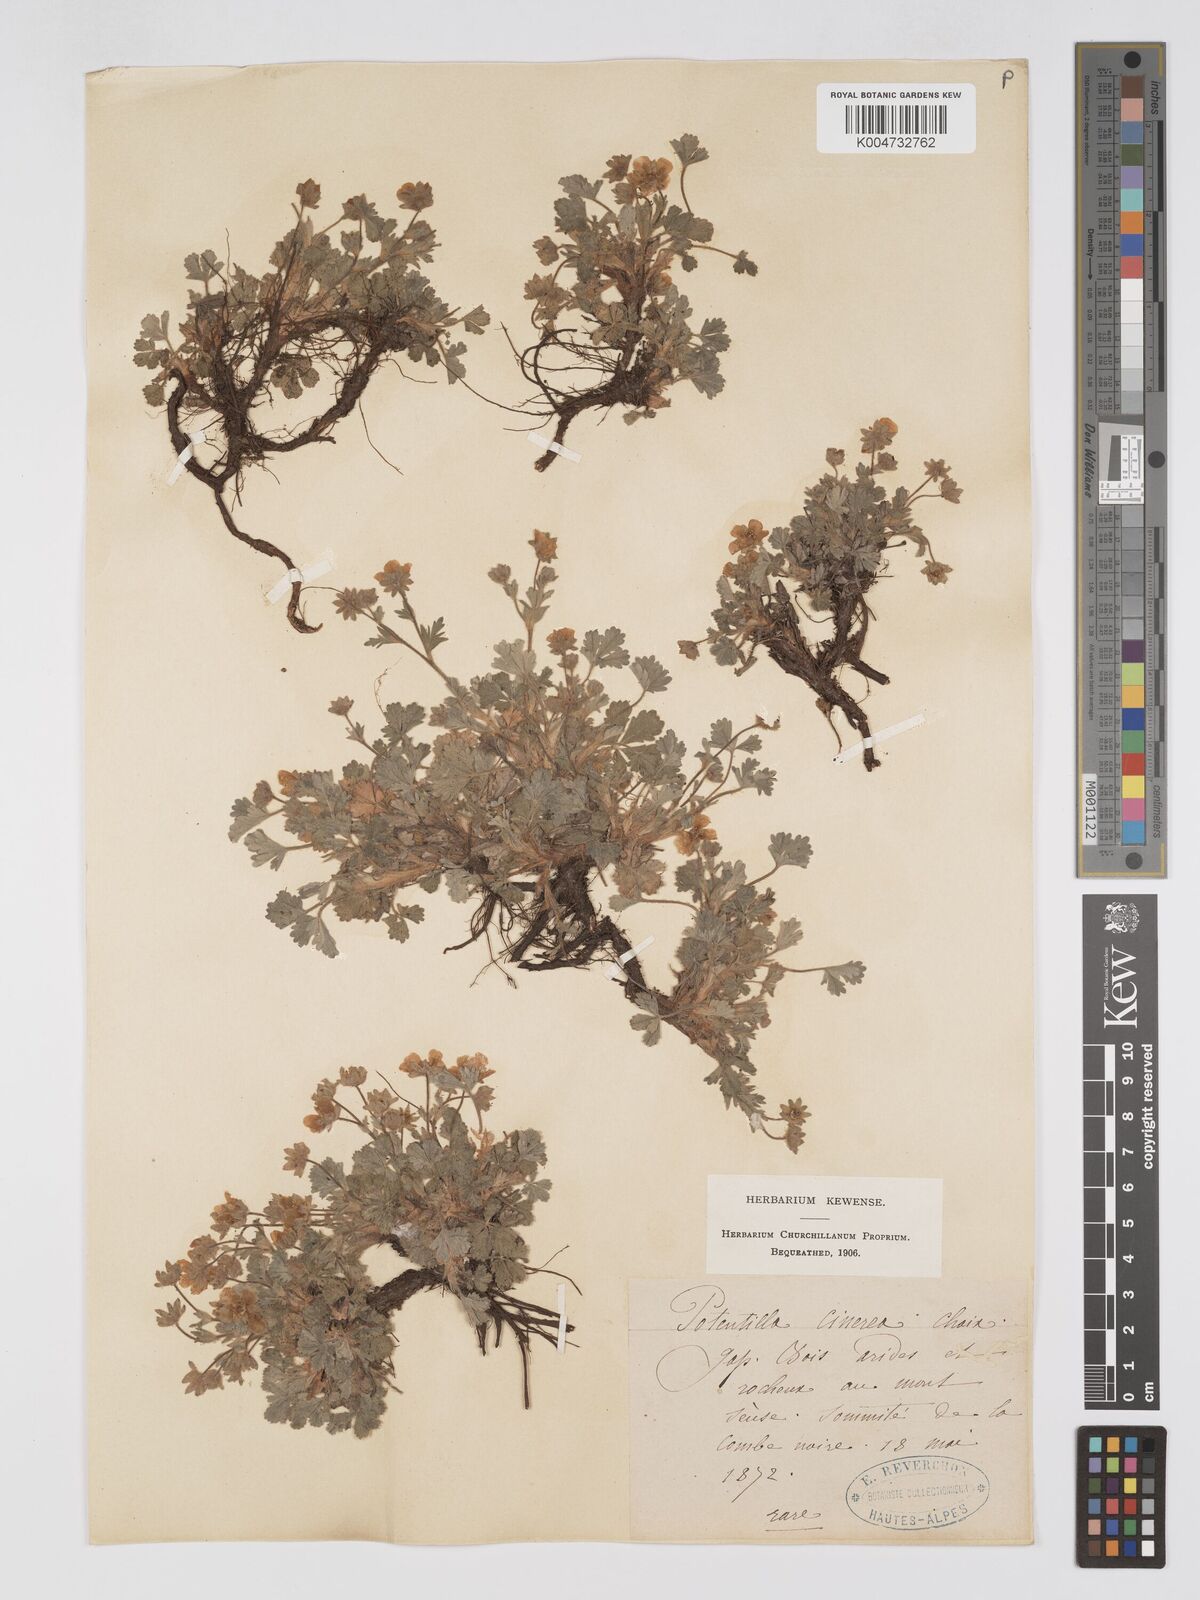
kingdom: Plantae
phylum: Tracheophyta
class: Magnoliopsida
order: Rosales
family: Rosaceae
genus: Potentilla
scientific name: Potentilla
